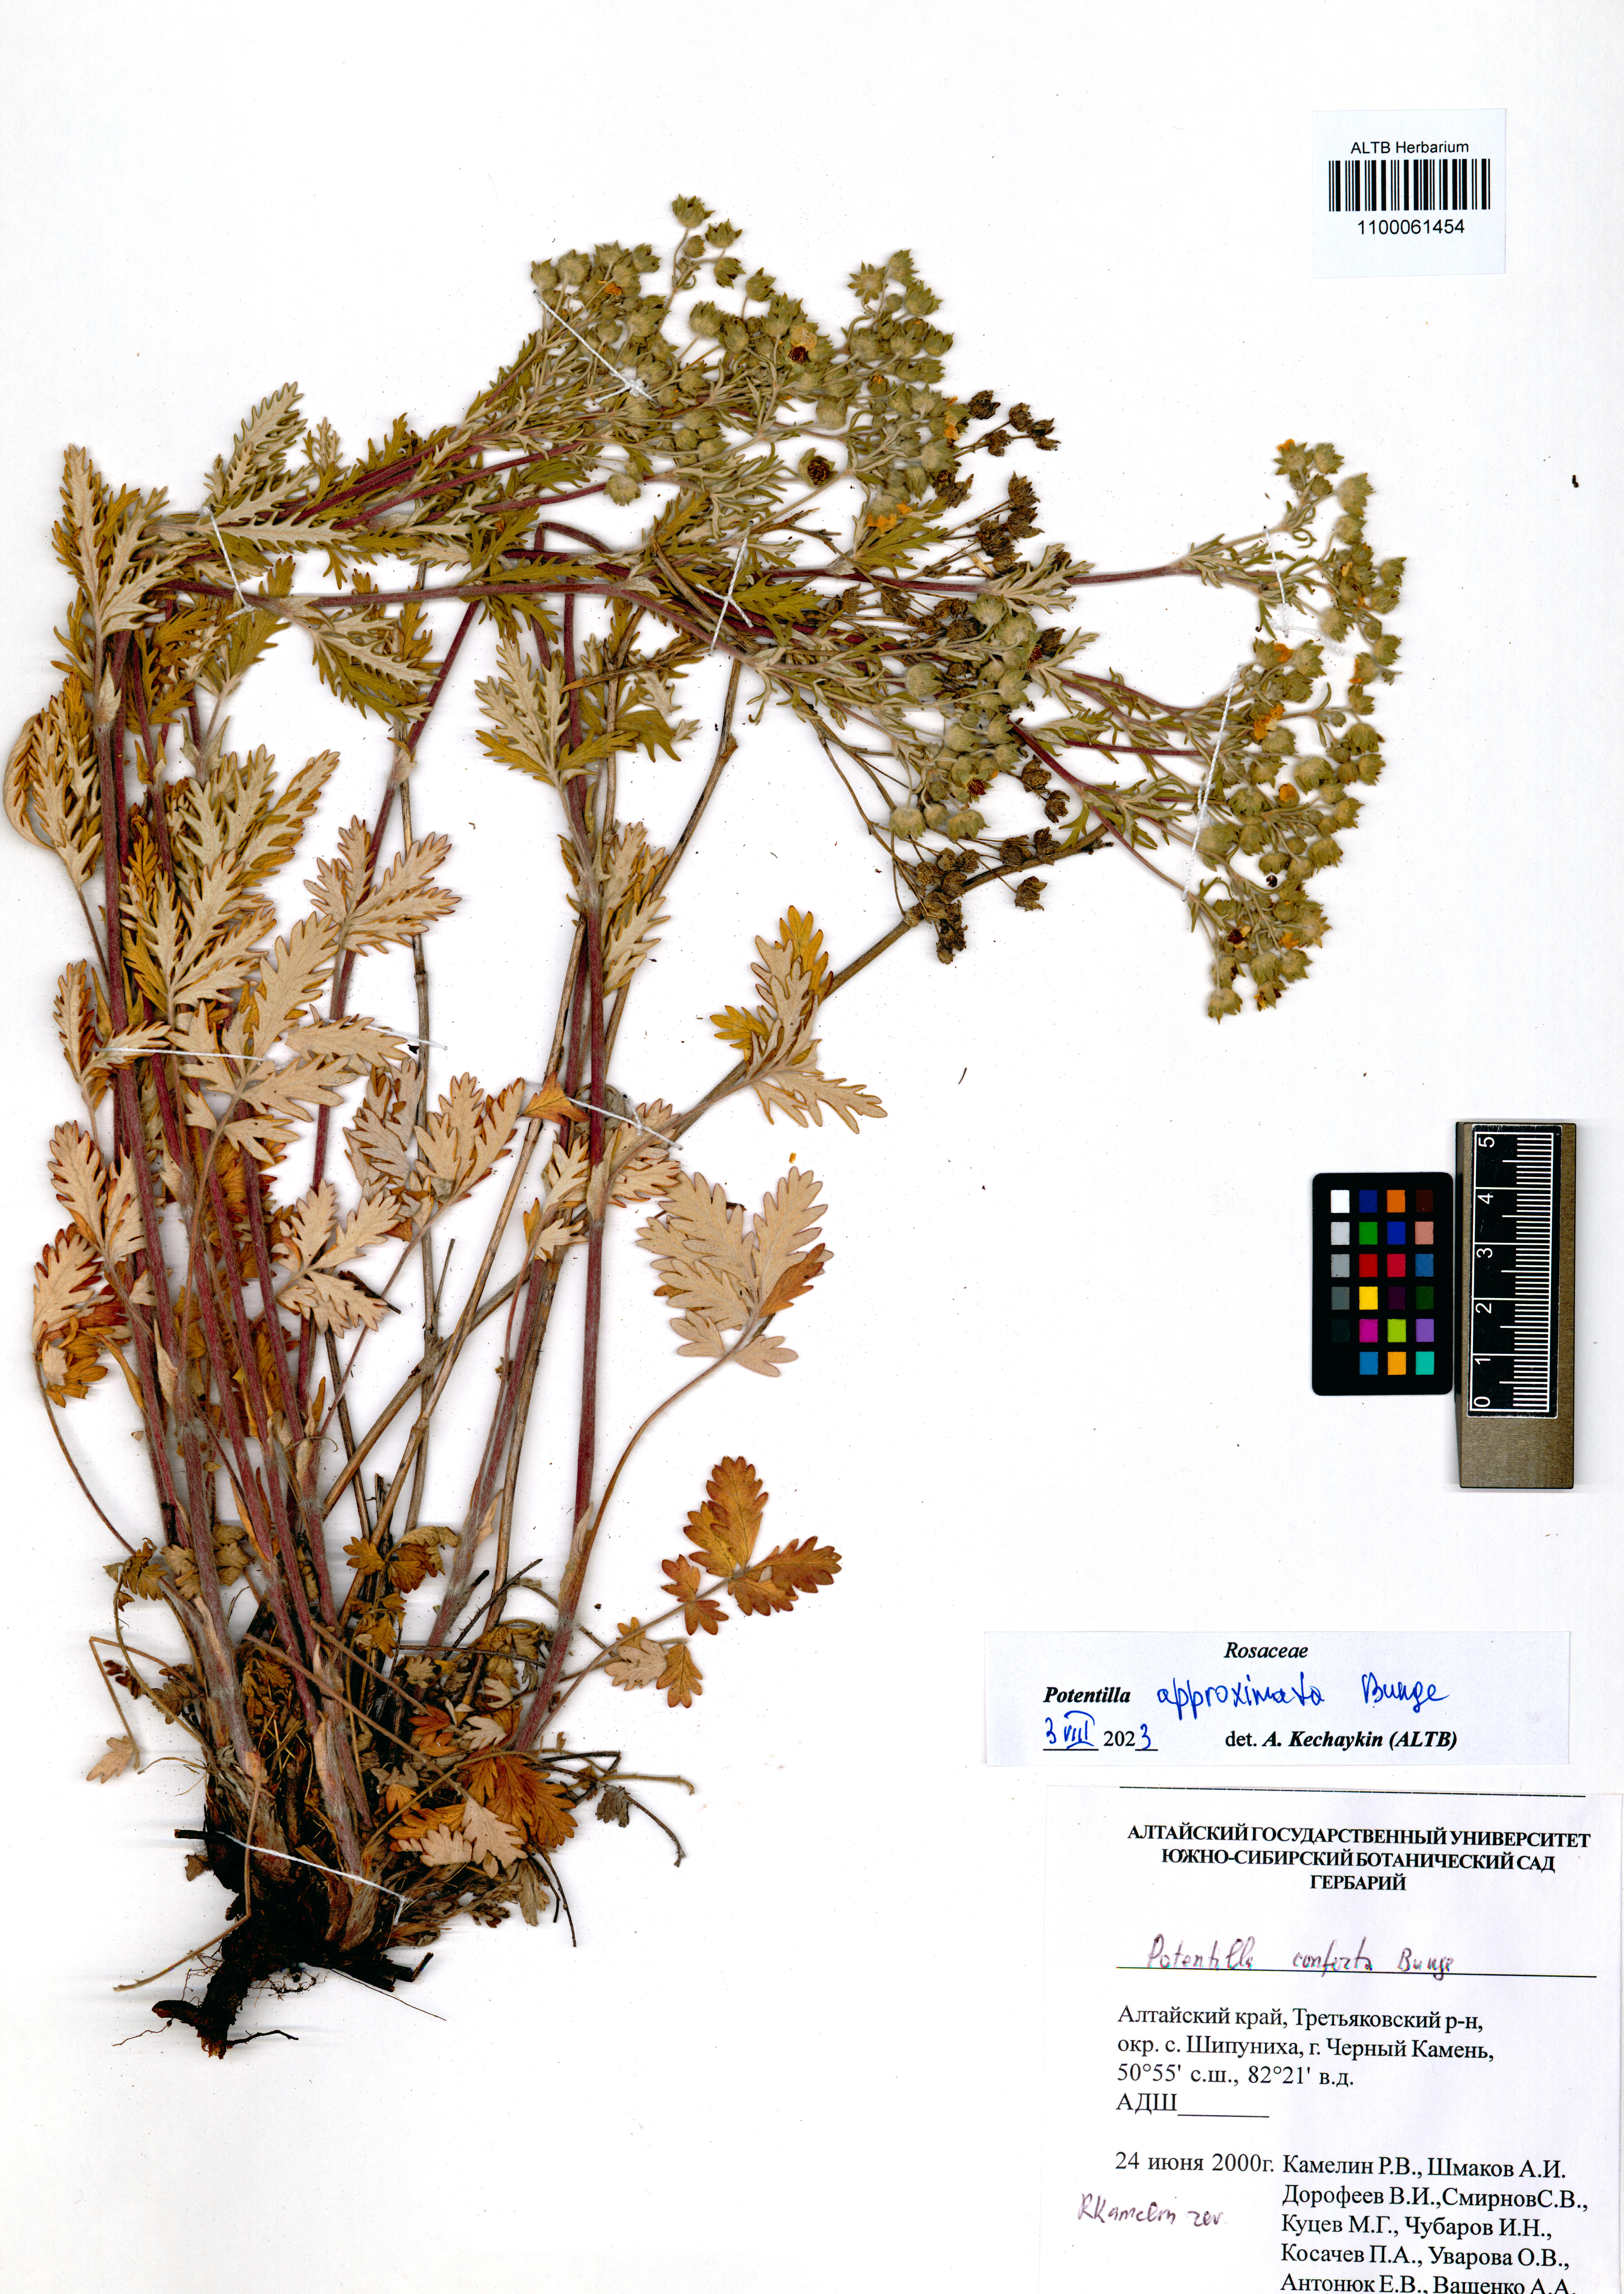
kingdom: Plantae
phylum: Tracheophyta
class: Magnoliopsida
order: Rosales
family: Rosaceae
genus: Potentilla
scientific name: Potentilla conferta
